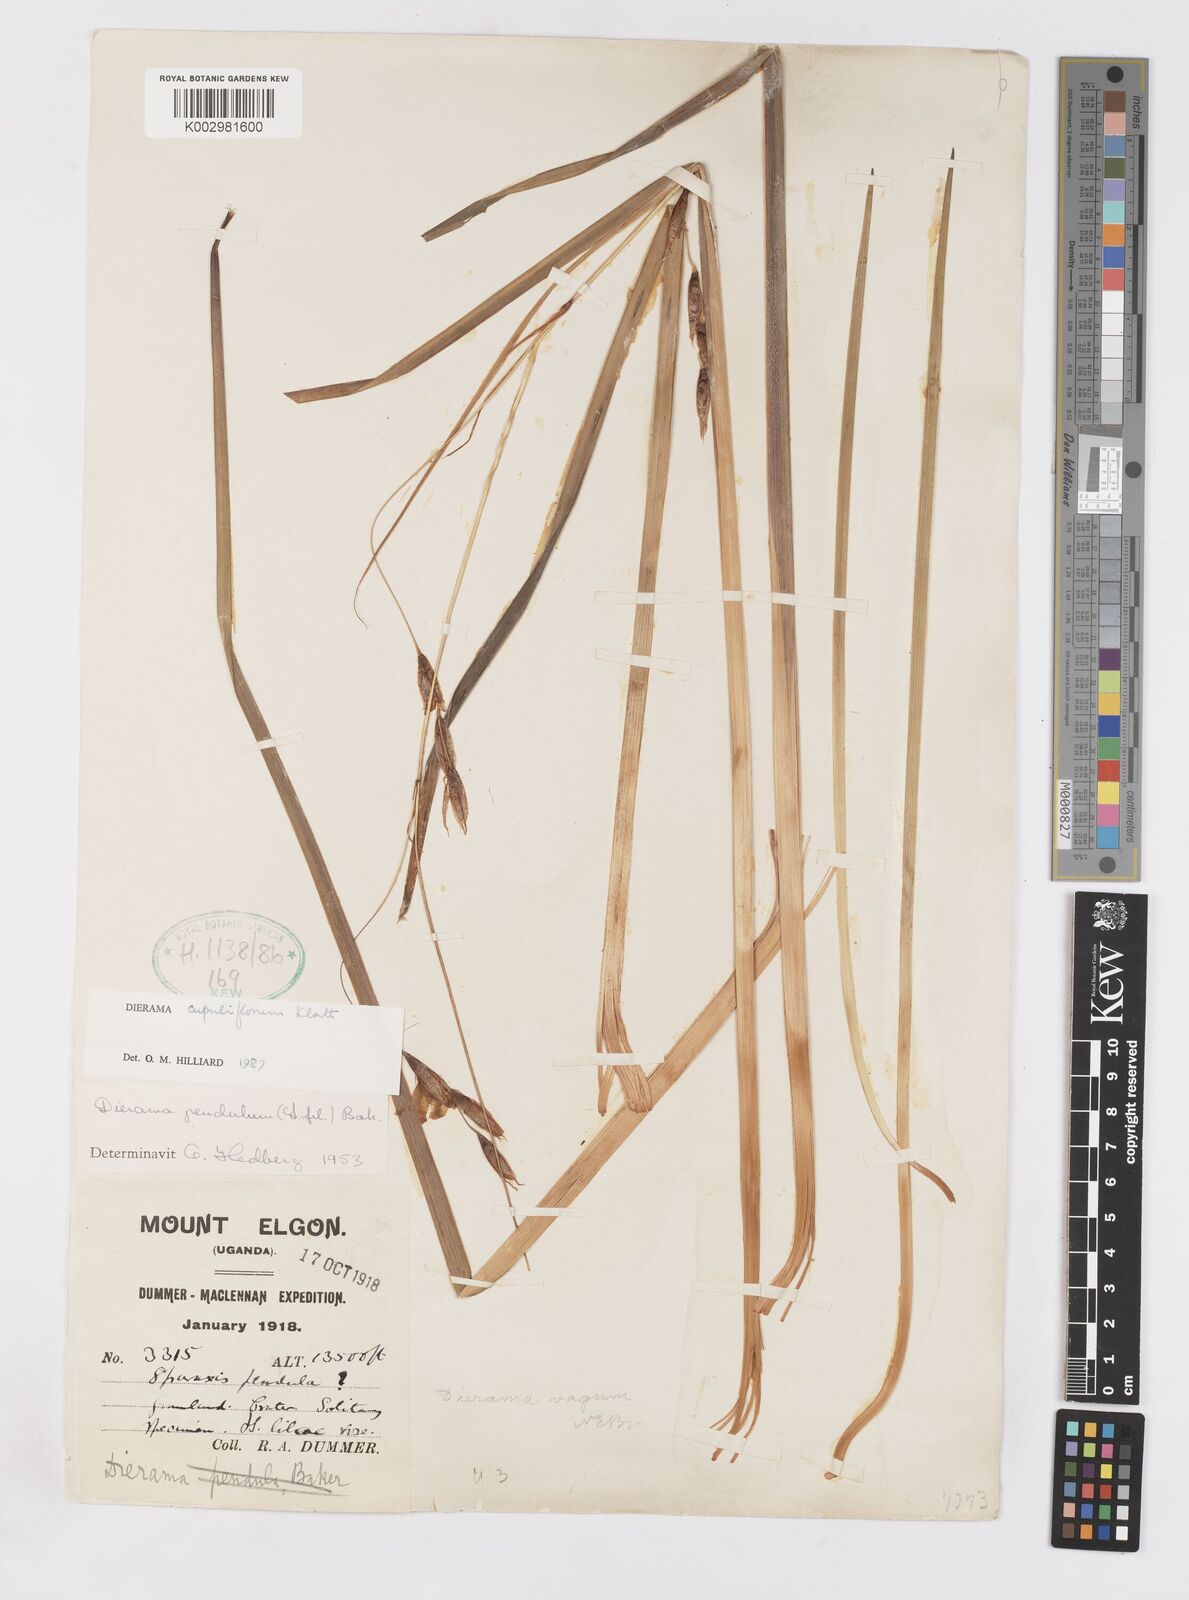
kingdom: Plantae
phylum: Tracheophyta
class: Liliopsida
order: Asparagales
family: Iridaceae
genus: Dierama
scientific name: Dierama cupuliflorum
